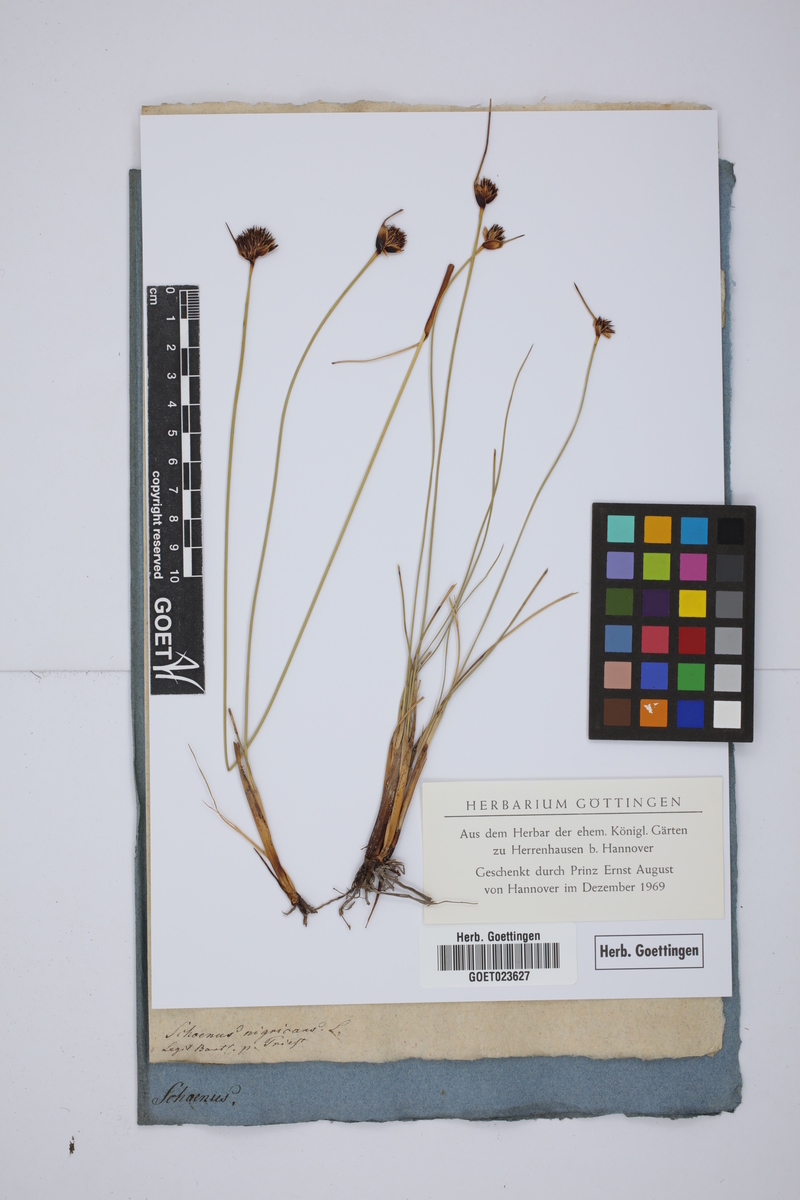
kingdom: Plantae
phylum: Tracheophyta
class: Liliopsida
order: Poales
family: Cyperaceae
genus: Schoenus
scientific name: Schoenus nigricans
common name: Black bog-rush
